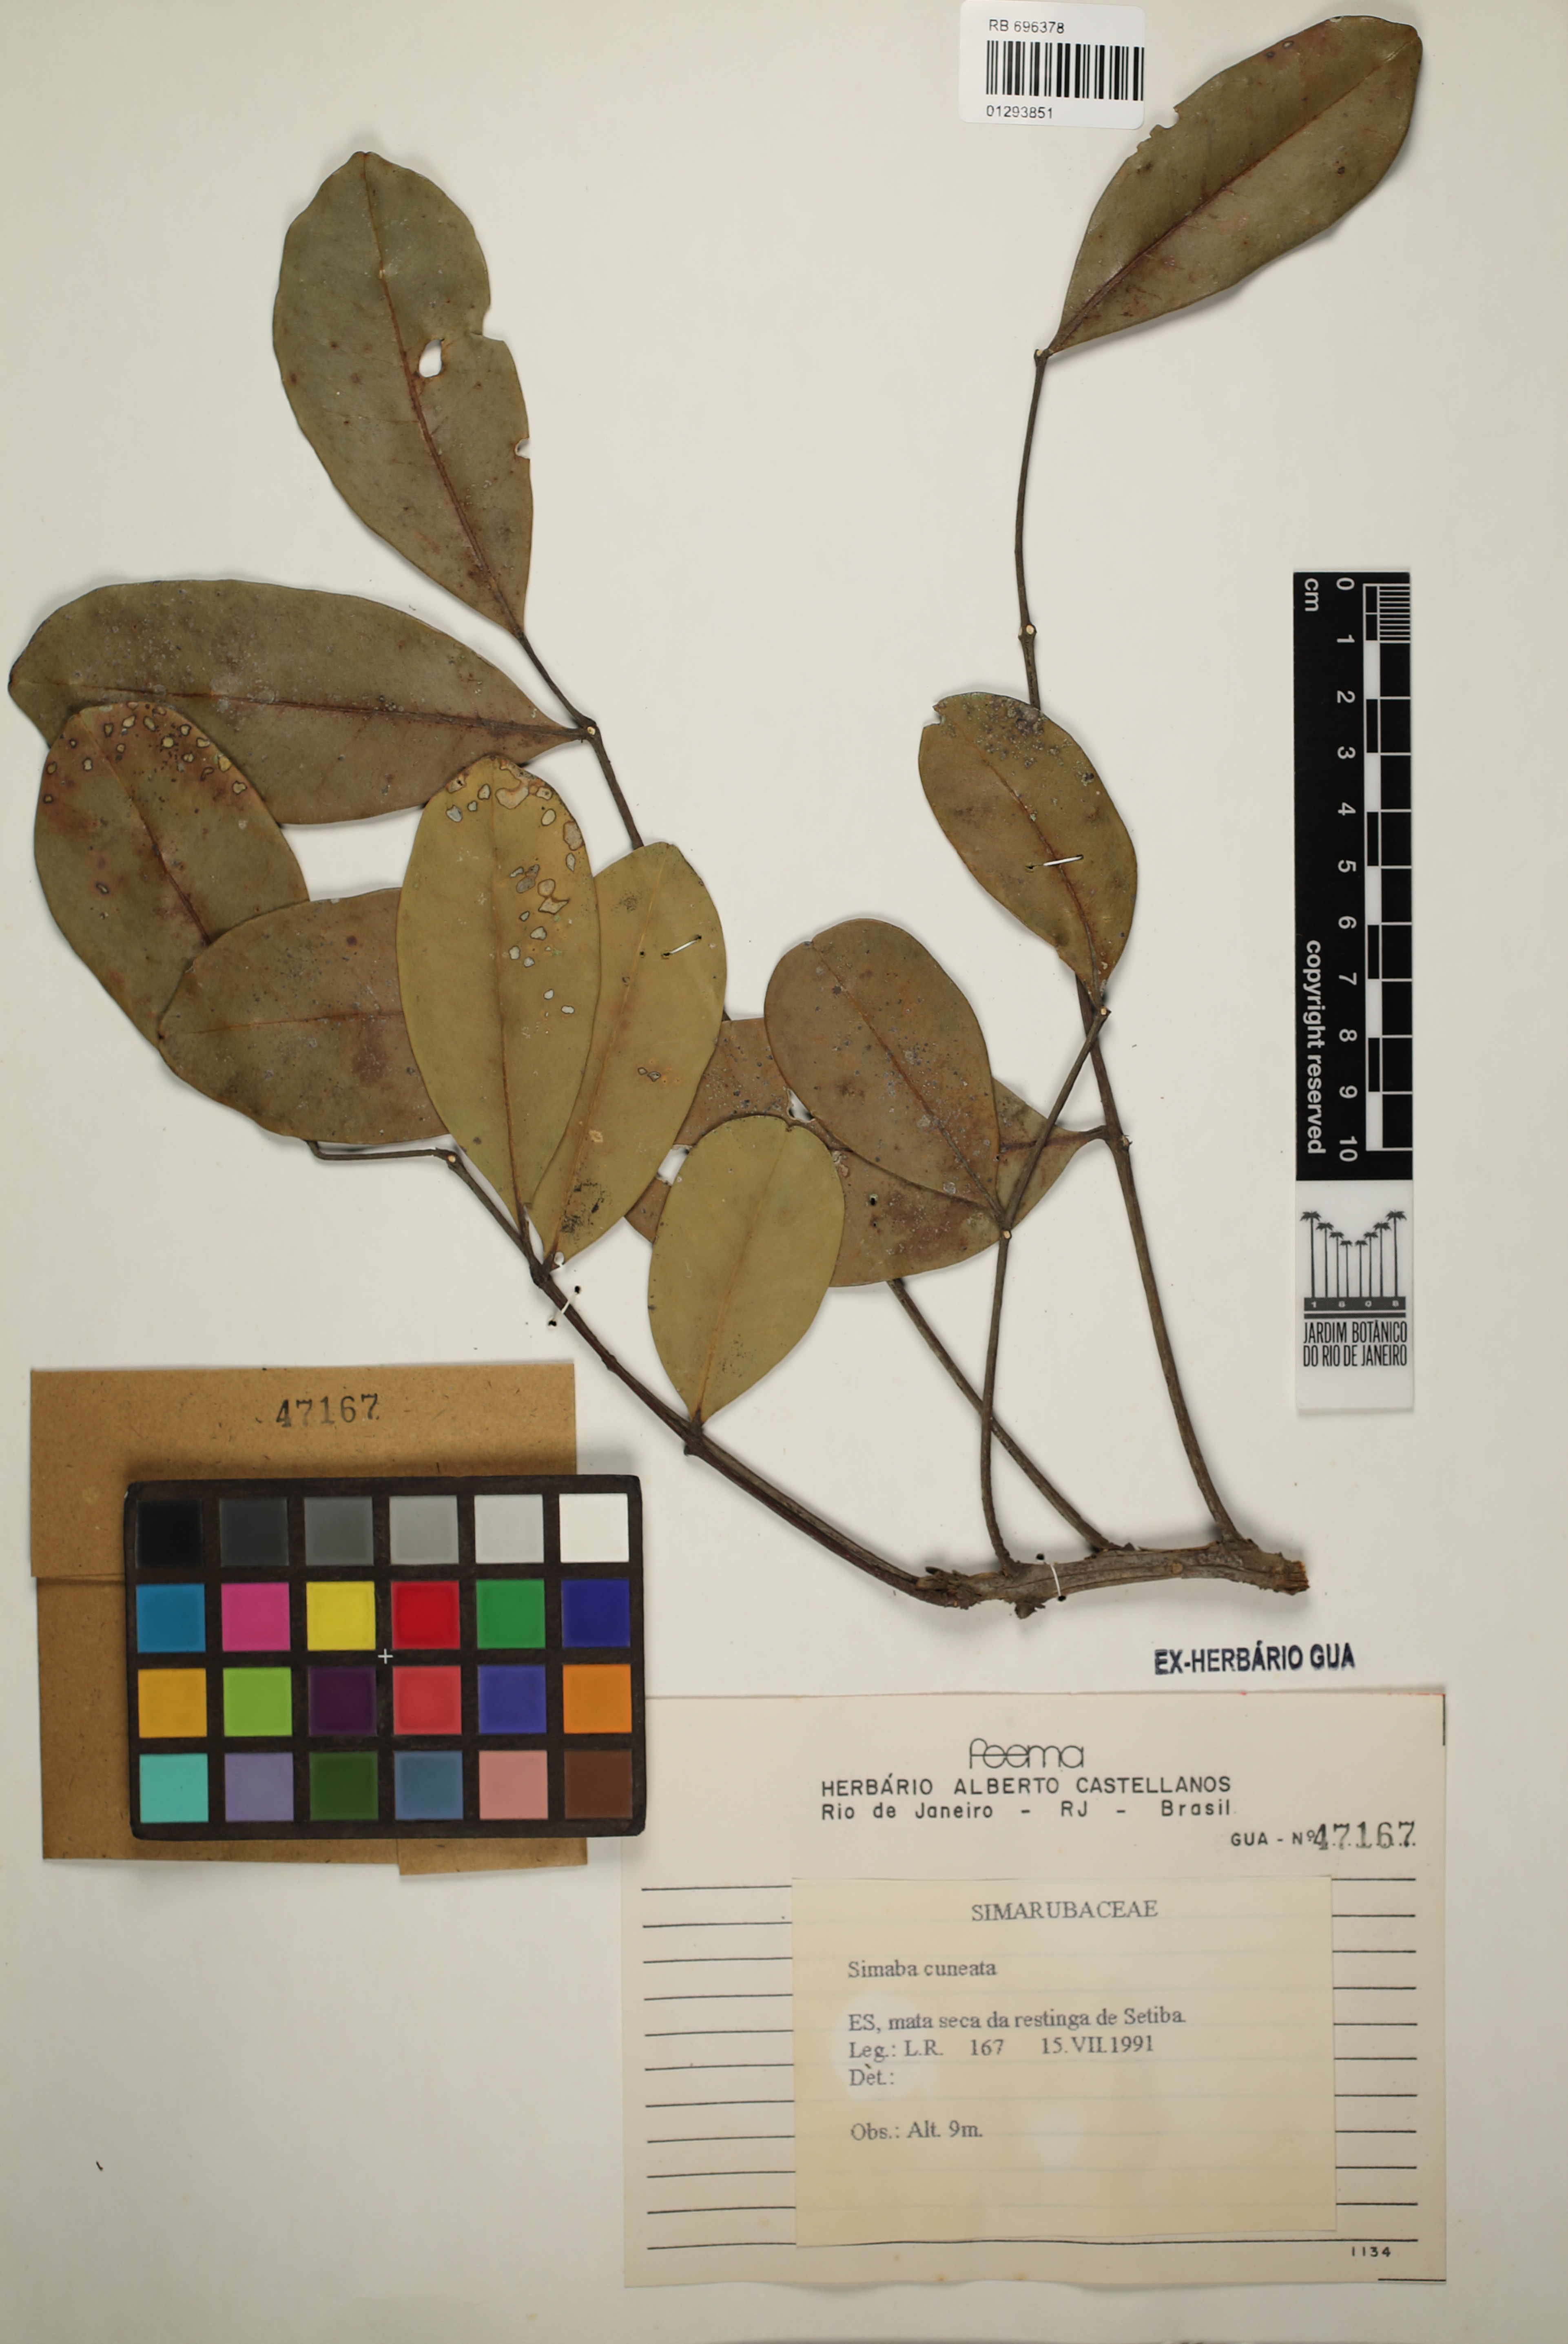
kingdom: Plantae
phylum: Tracheophyta
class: Magnoliopsida
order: Sapindales
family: Simaroubaceae
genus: Homalolepis
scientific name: Homalolepis cuneata
